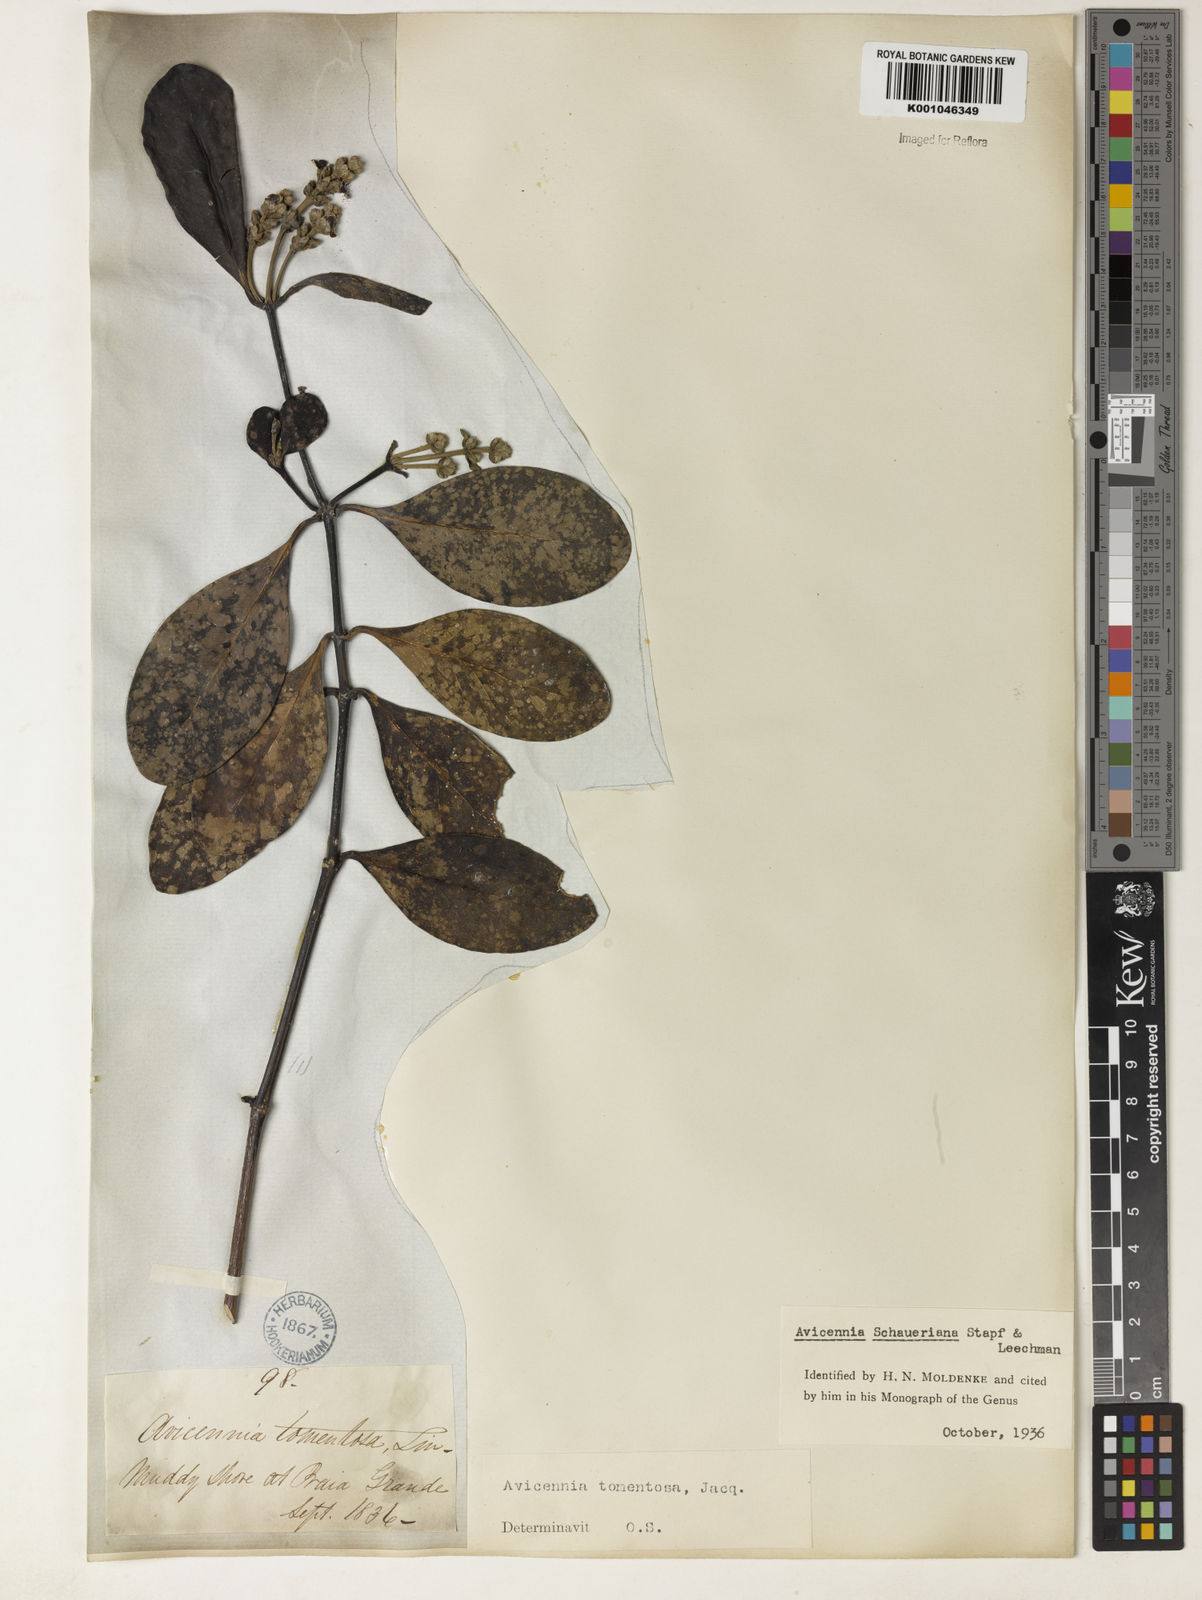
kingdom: Plantae
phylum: Tracheophyta
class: Magnoliopsida
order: Lamiales
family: Acanthaceae
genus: Avicennia
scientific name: Avicennia schaueriana
